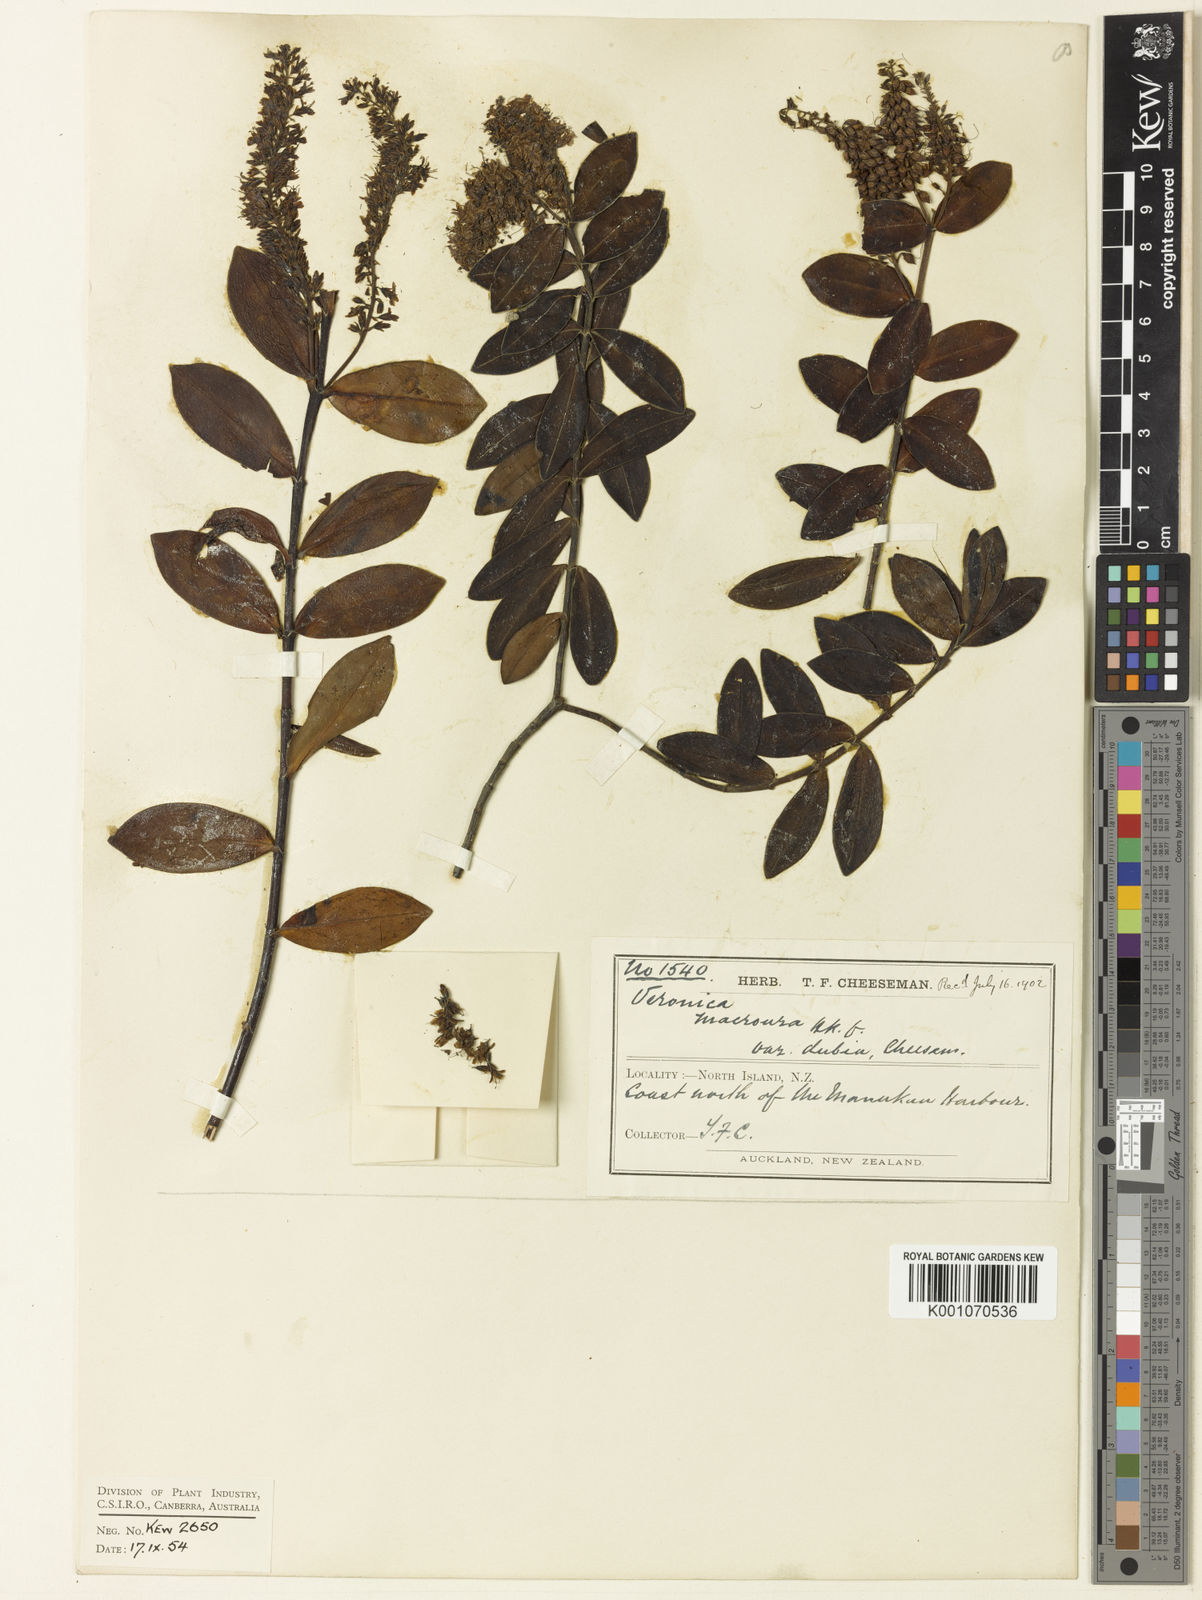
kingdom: Plantae
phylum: Tracheophyta
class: Magnoliopsida
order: Lamiales
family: Plantaginaceae
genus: Veronica
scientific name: Veronica obtusata
